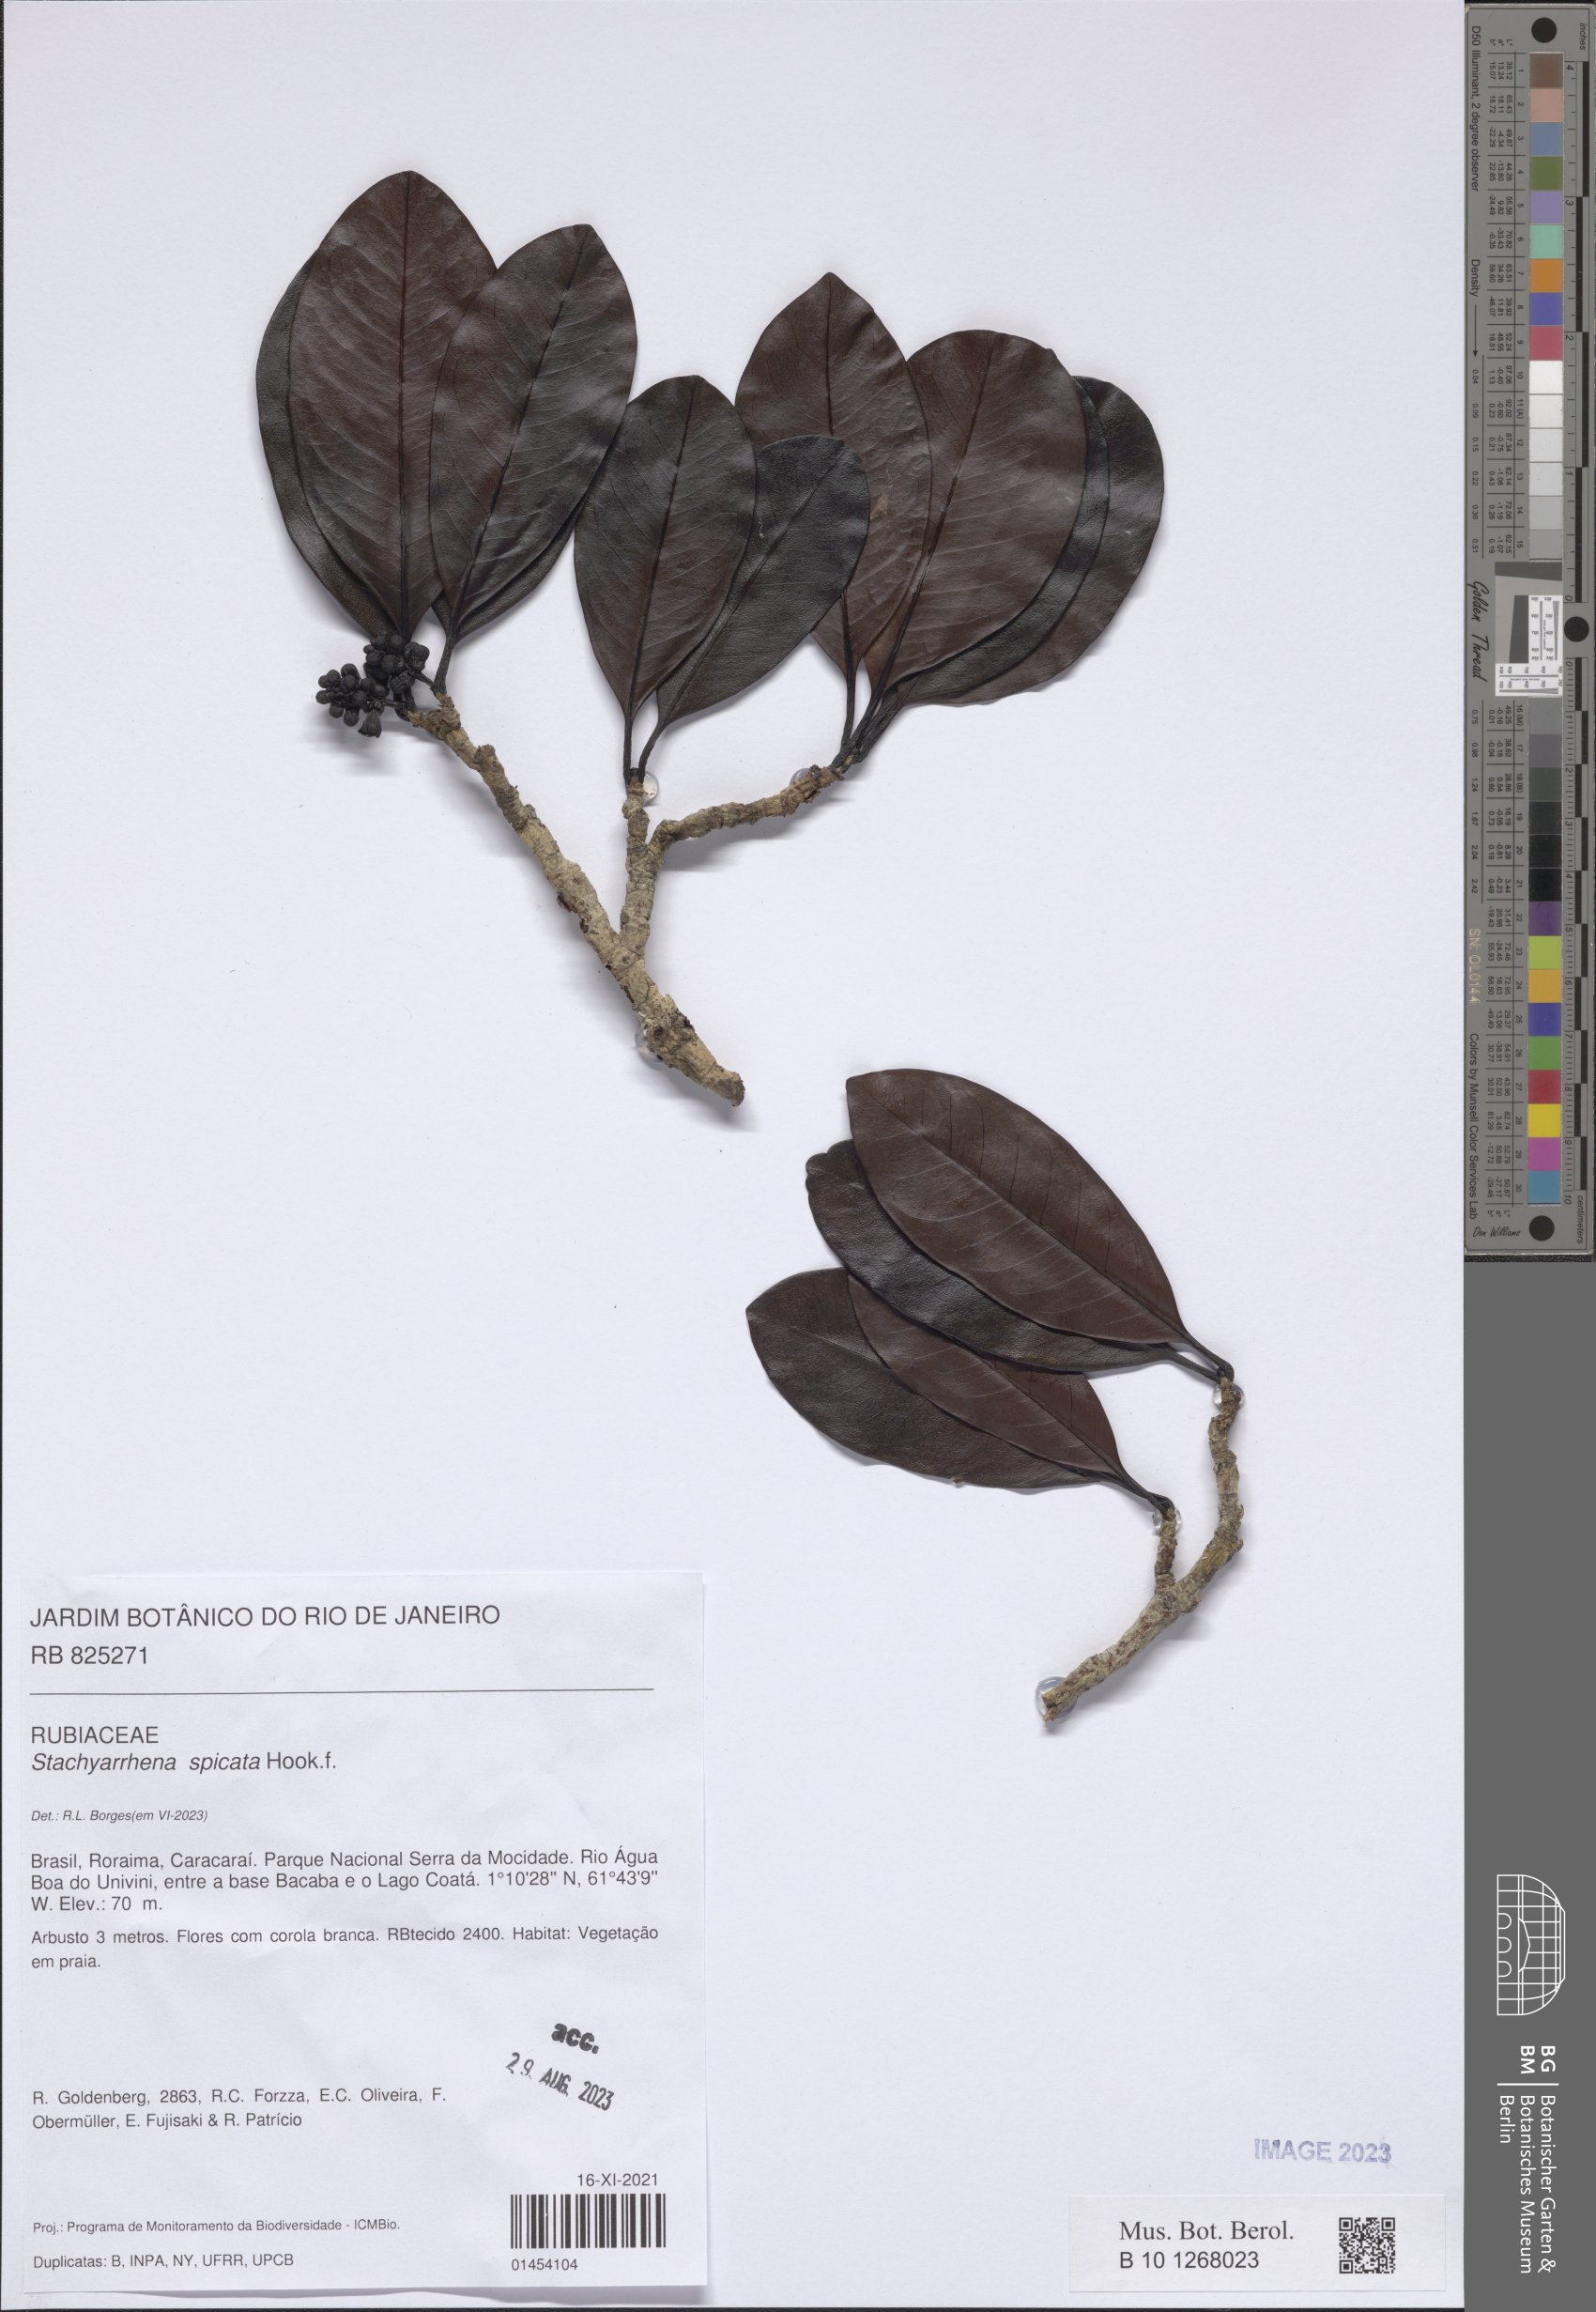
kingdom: Plantae
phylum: Tracheophyta
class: Magnoliopsida
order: Gentianales
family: Rubiaceae
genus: Stachyarrhena
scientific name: Stachyarrhena spicata
